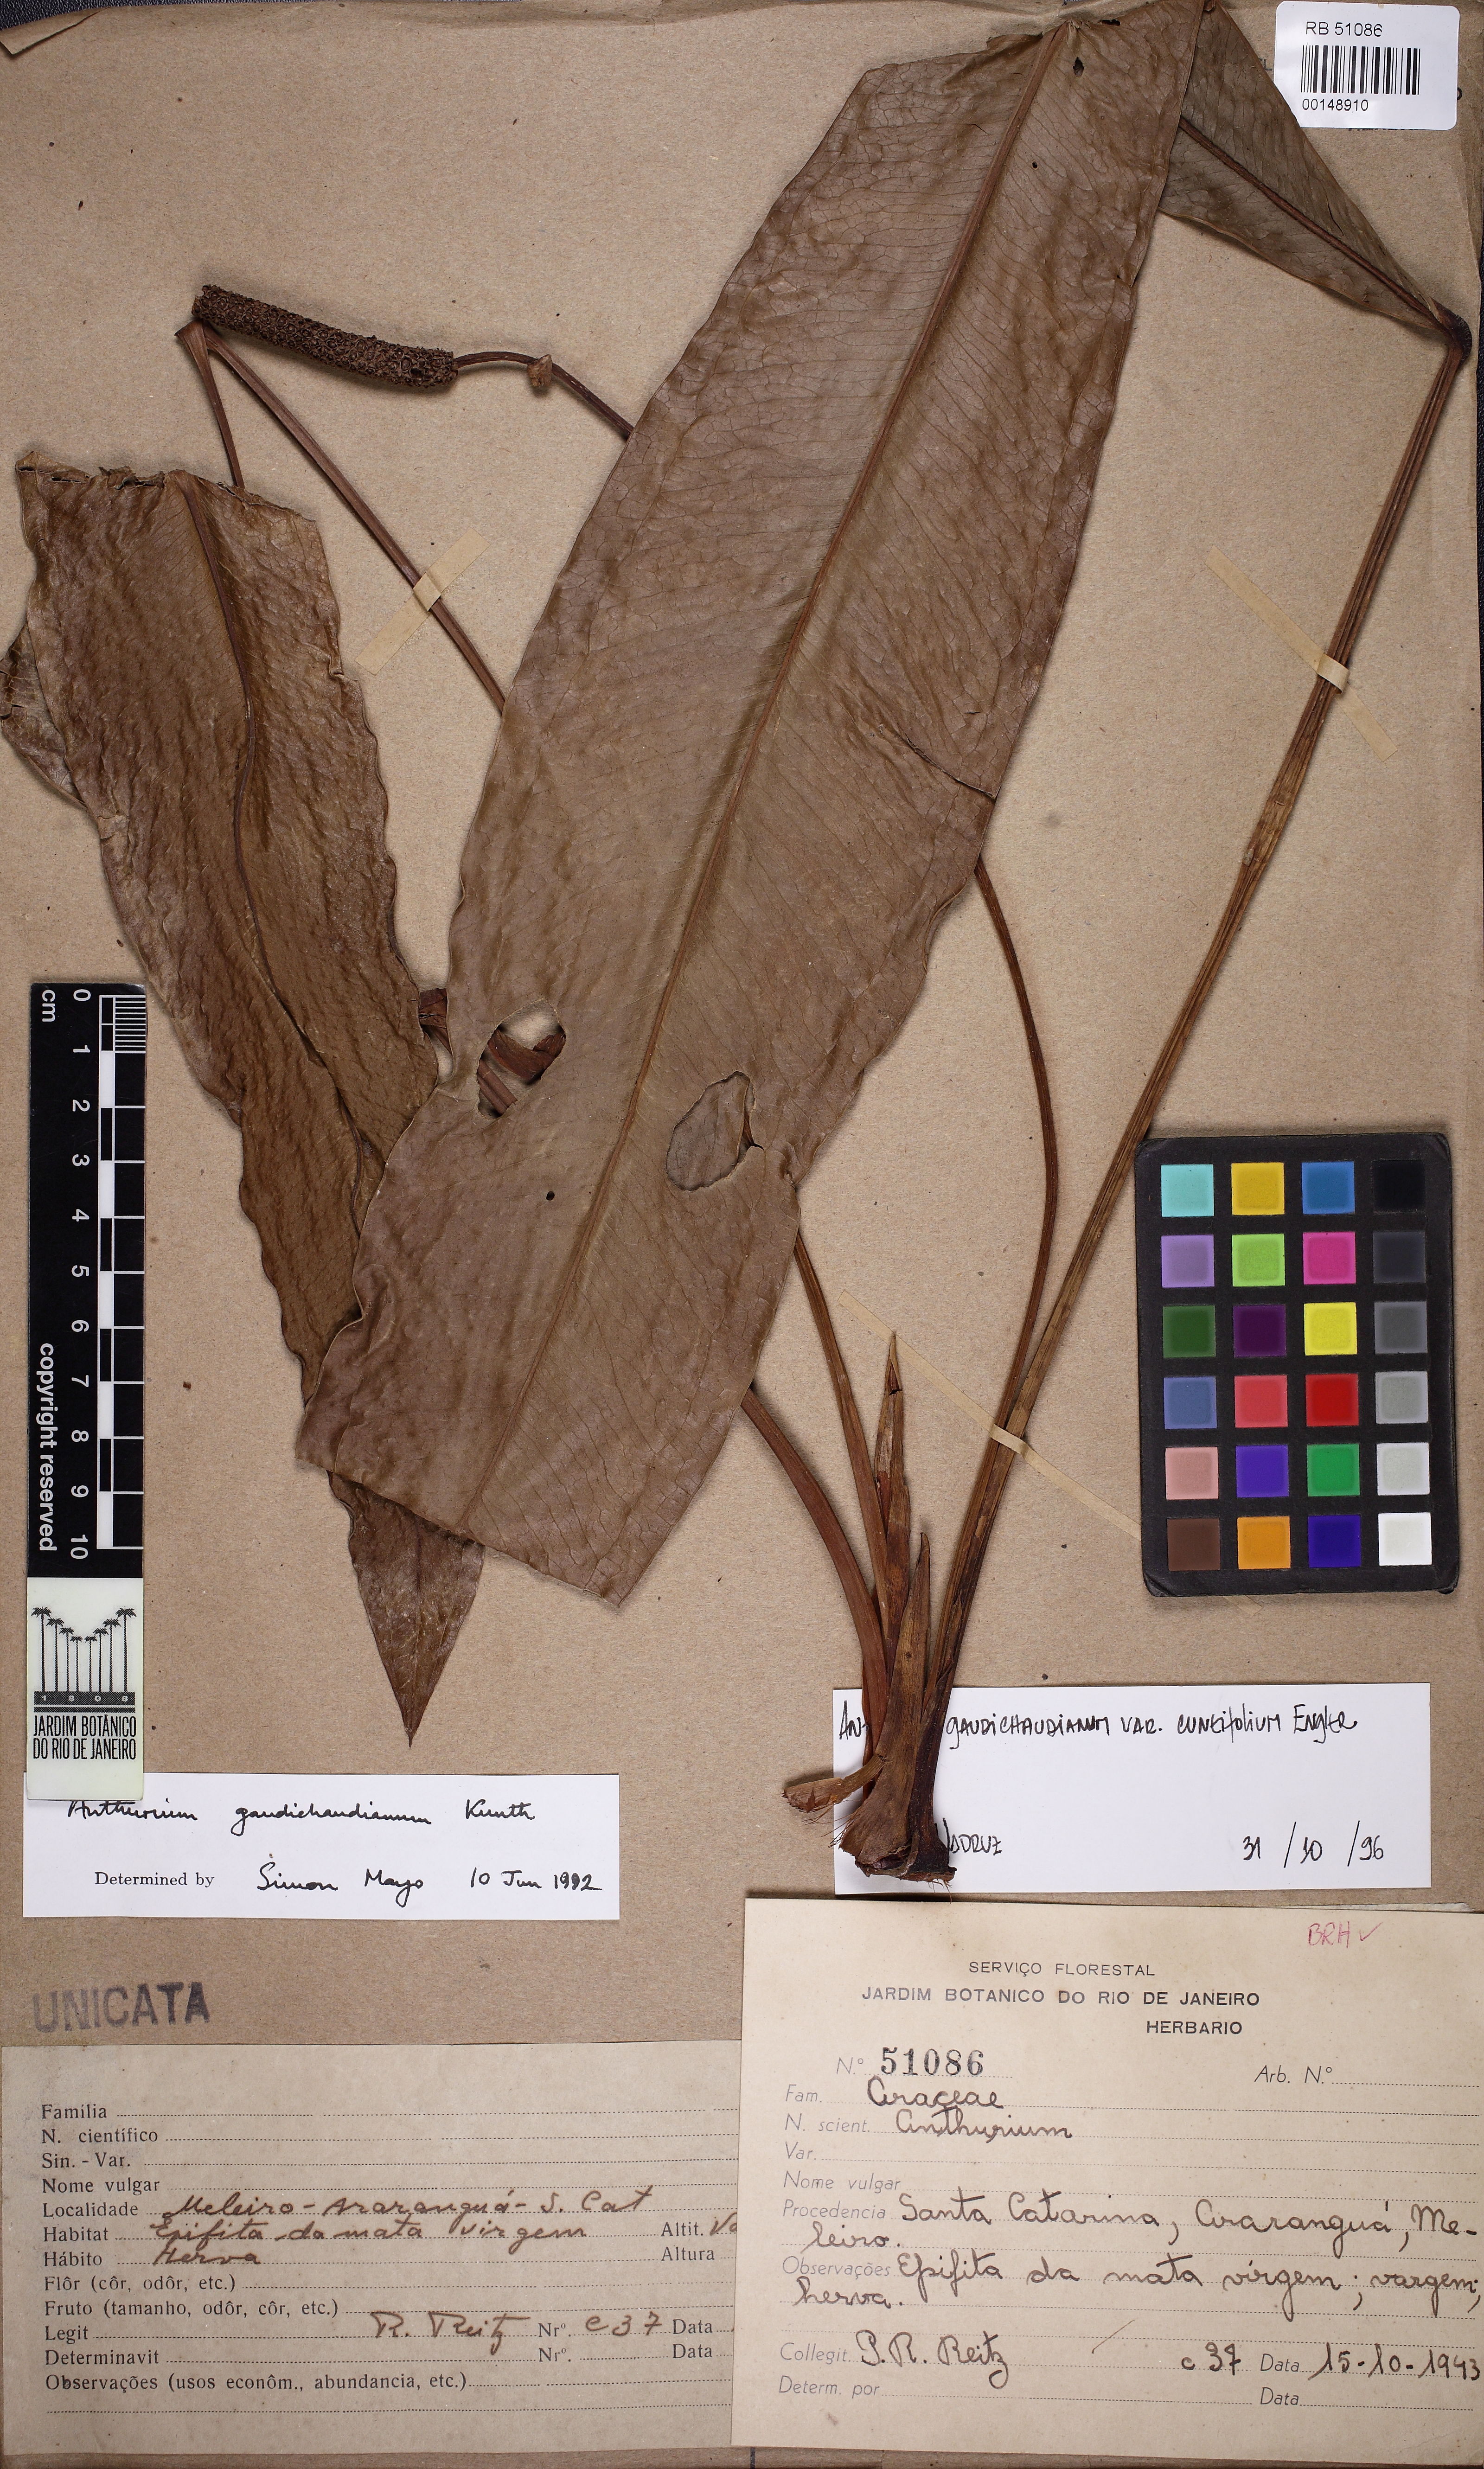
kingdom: Plantae
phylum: Tracheophyta
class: Liliopsida
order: Alismatales
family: Araceae
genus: Anthurium
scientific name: Anthurium gaudichaudianum
